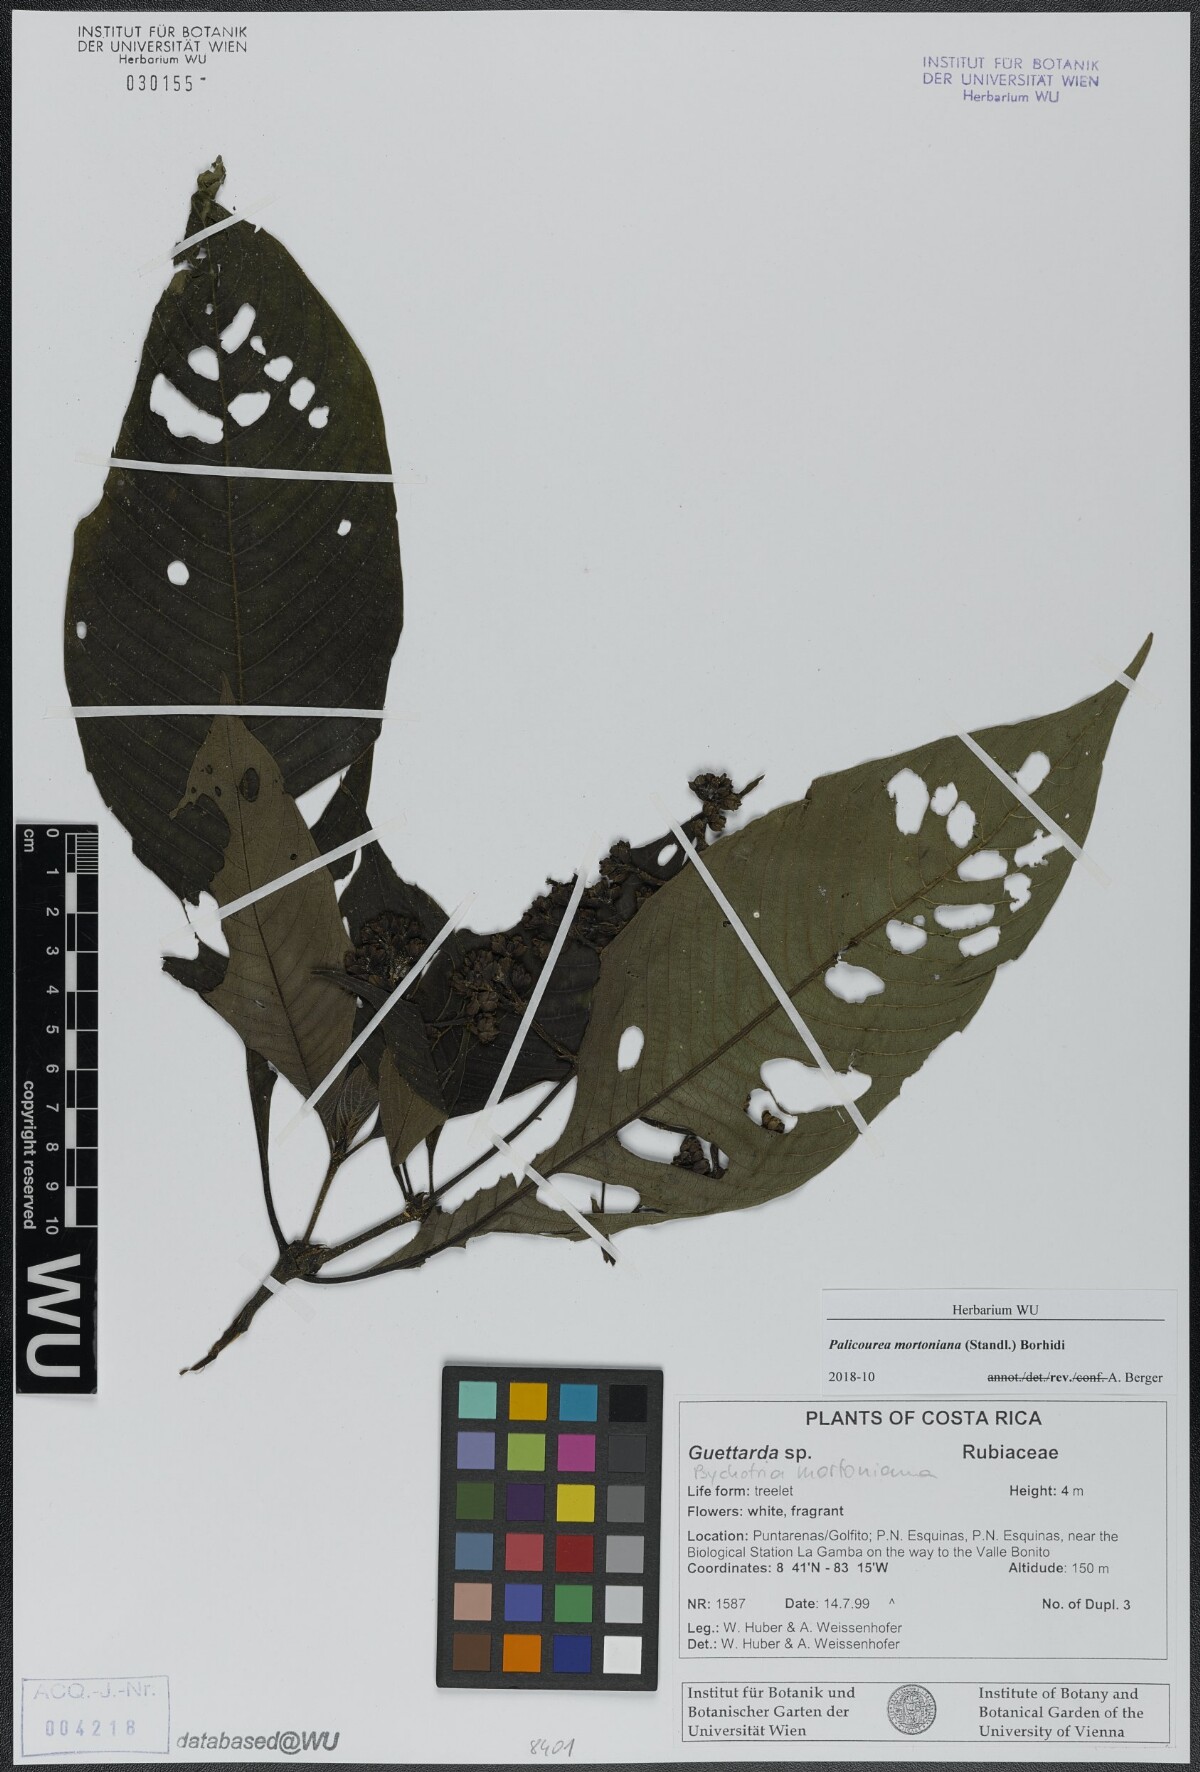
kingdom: Plantae
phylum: Tracheophyta
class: Magnoliopsida
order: Gentianales
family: Rubiaceae
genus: Palicourea
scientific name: Palicourea mortoniana
